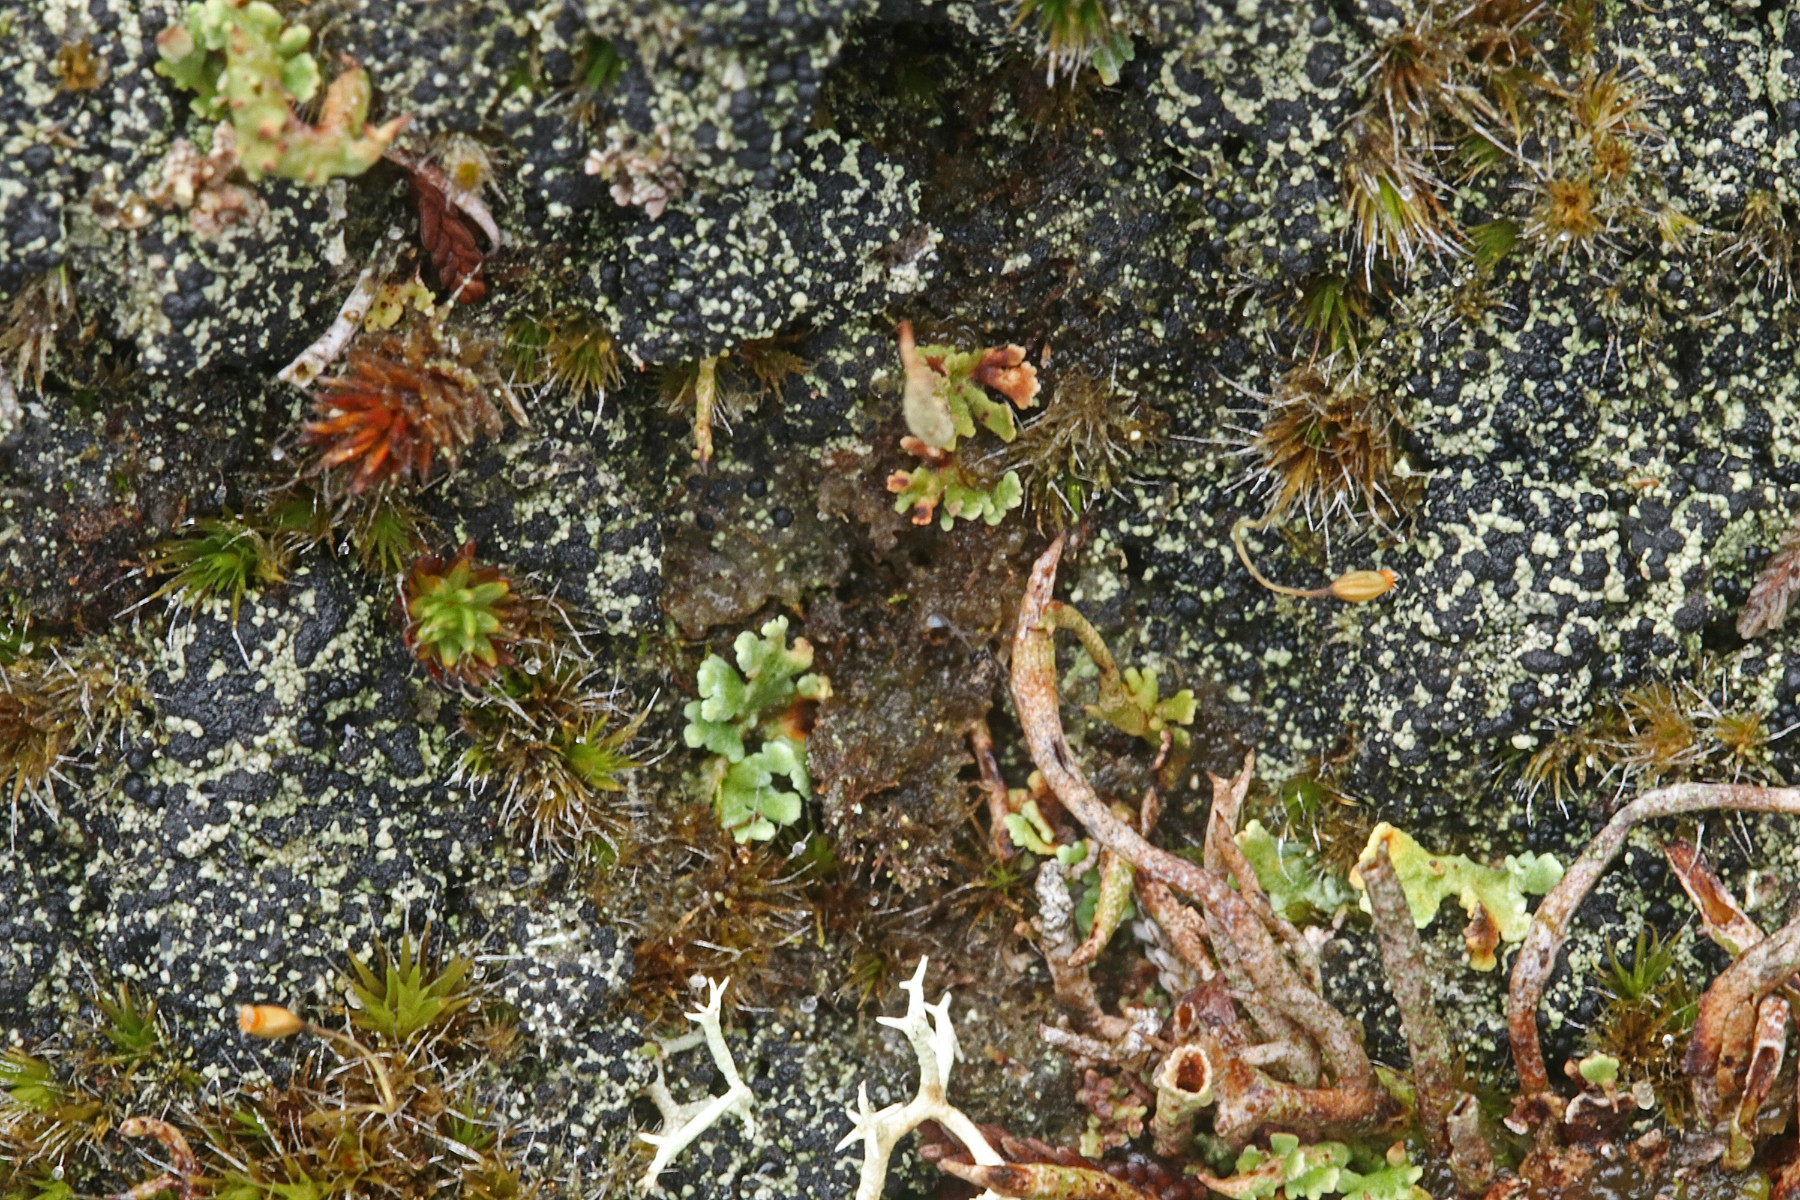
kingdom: Fungi
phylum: Ascomycota
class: Lecanoromycetes
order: Lecanorales
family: Byssolomataceae
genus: Micarea
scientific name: Micarea lignaria
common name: tørve-knaplav
